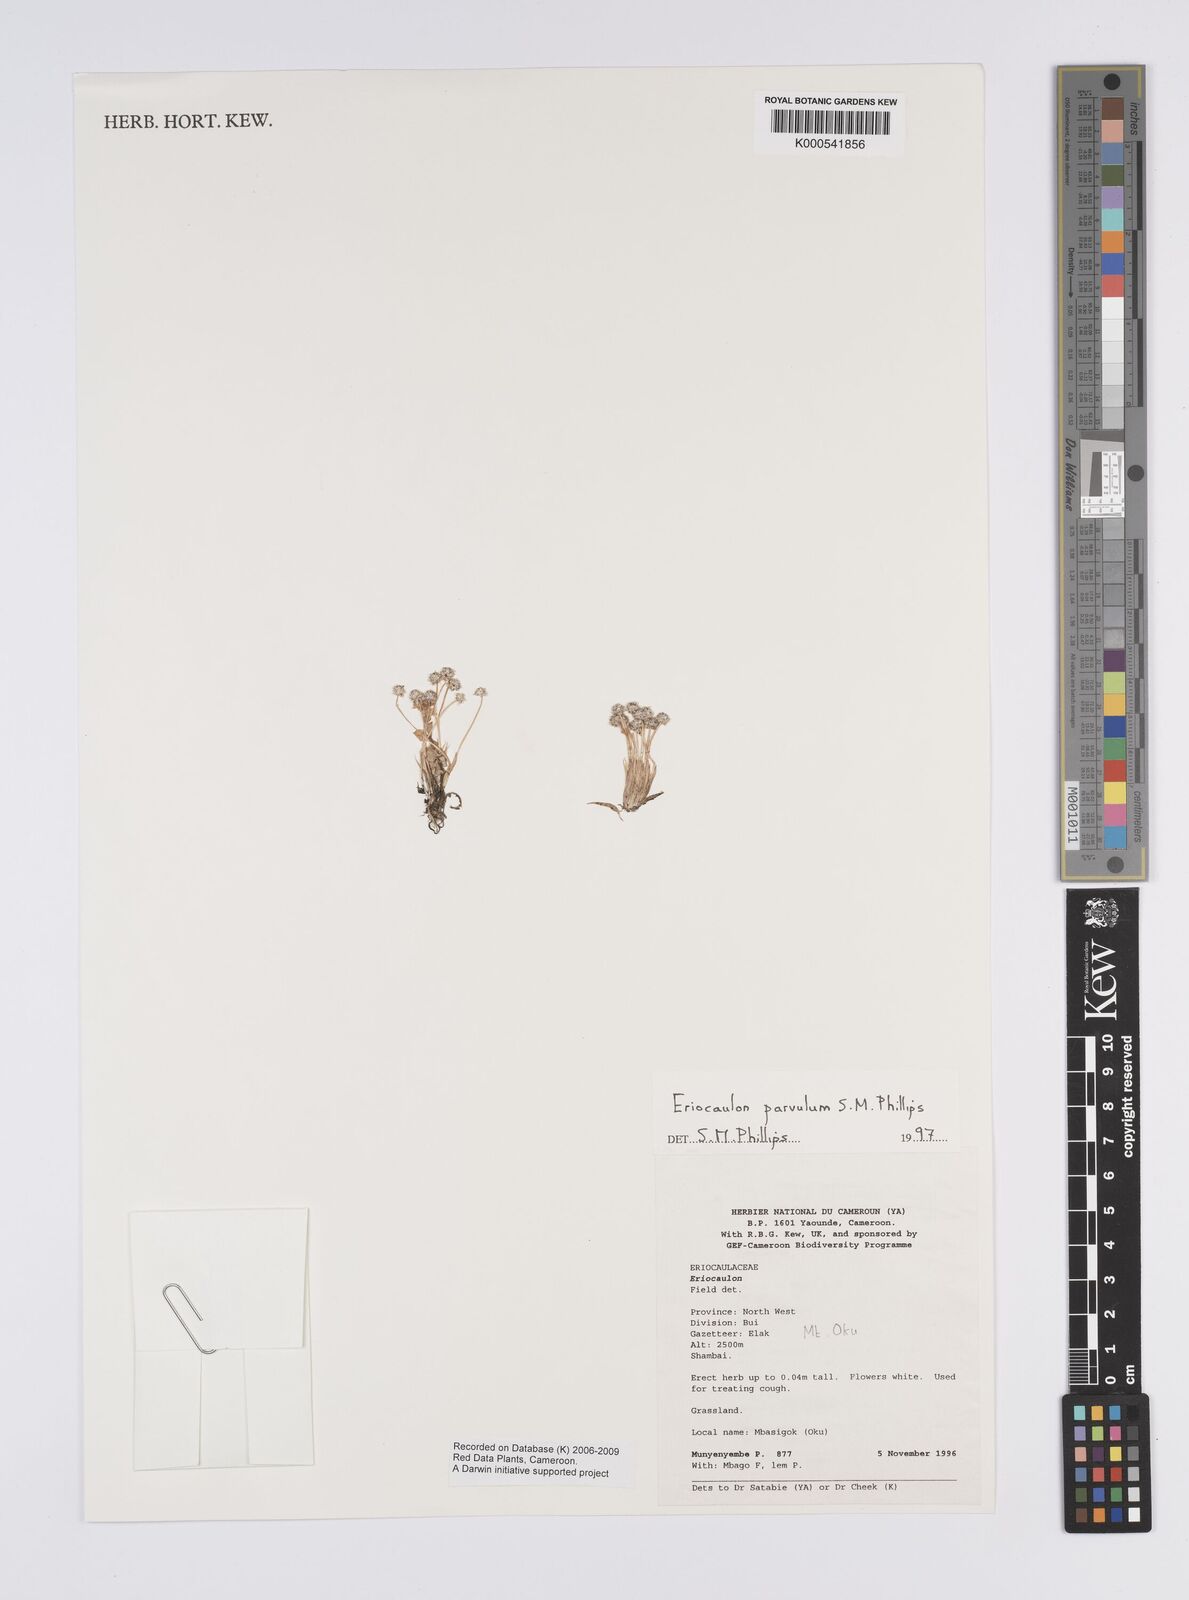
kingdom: Plantae
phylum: Tracheophyta
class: Liliopsida
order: Poales
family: Eriocaulaceae
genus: Eriocaulon
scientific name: Eriocaulon parvulum
